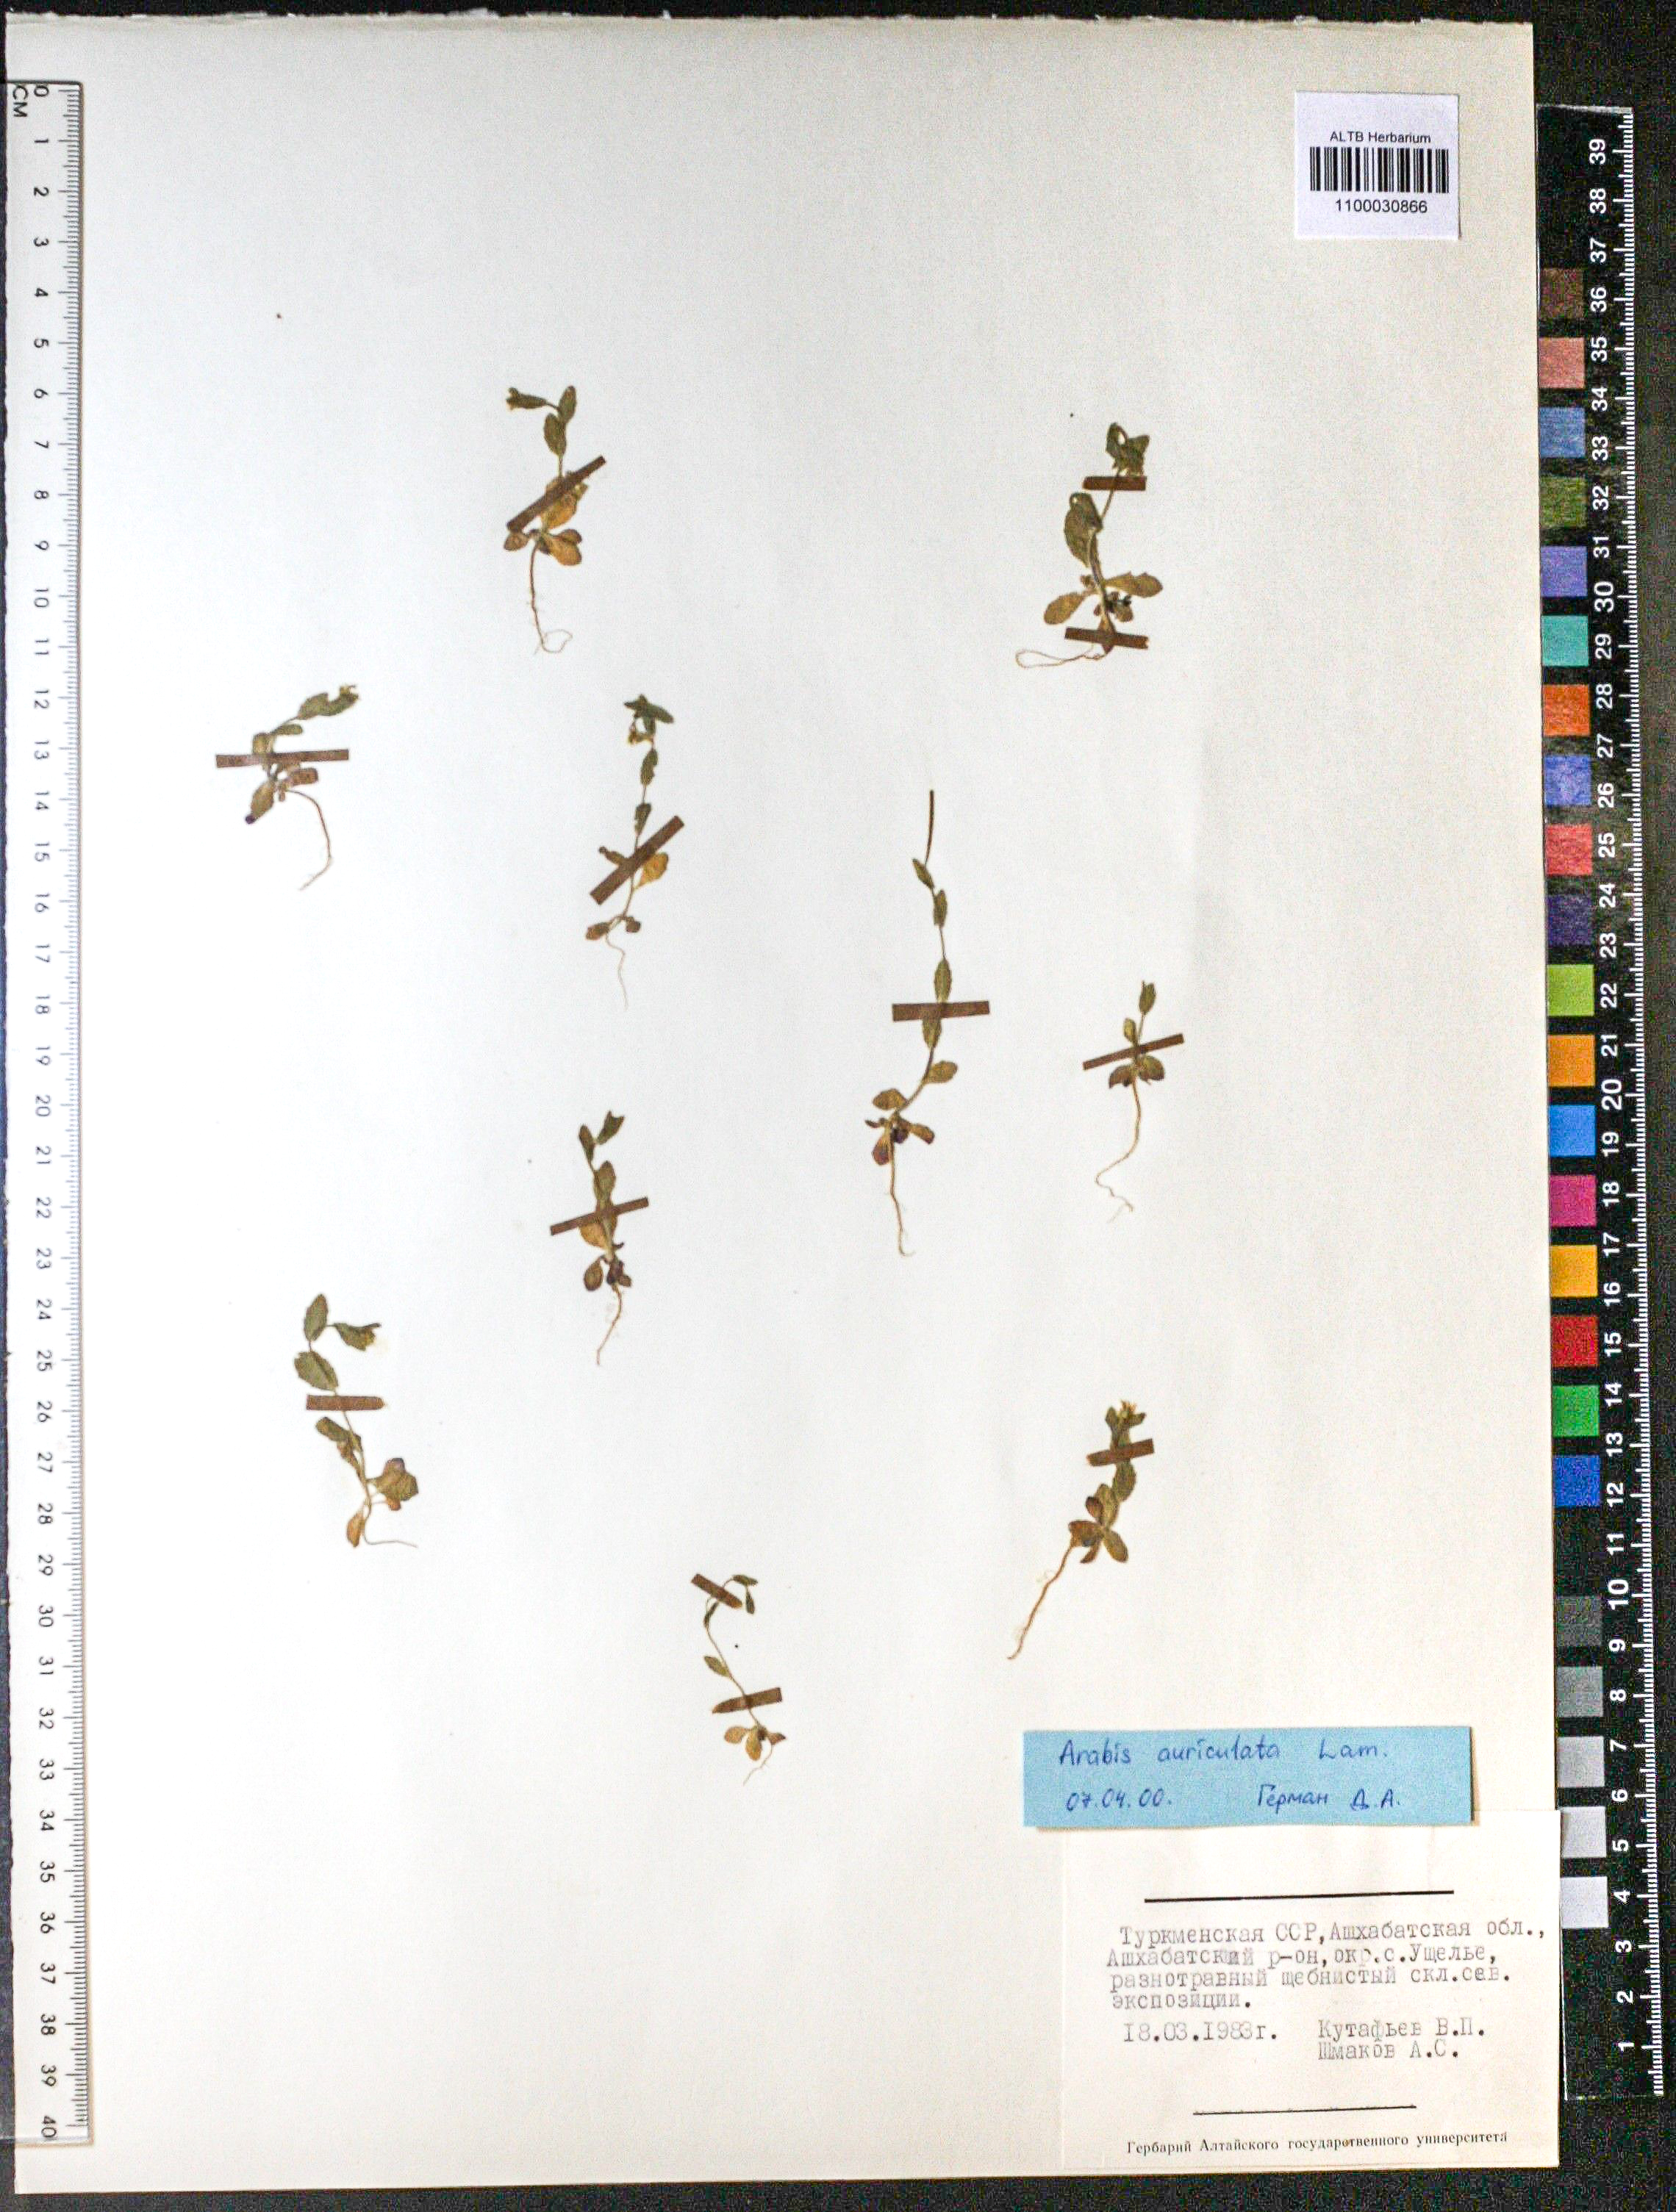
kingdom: Plantae
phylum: Tracheophyta
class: Magnoliopsida
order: Brassicales
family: Brassicaceae
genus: Arabis
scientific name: Arabis auriculata
